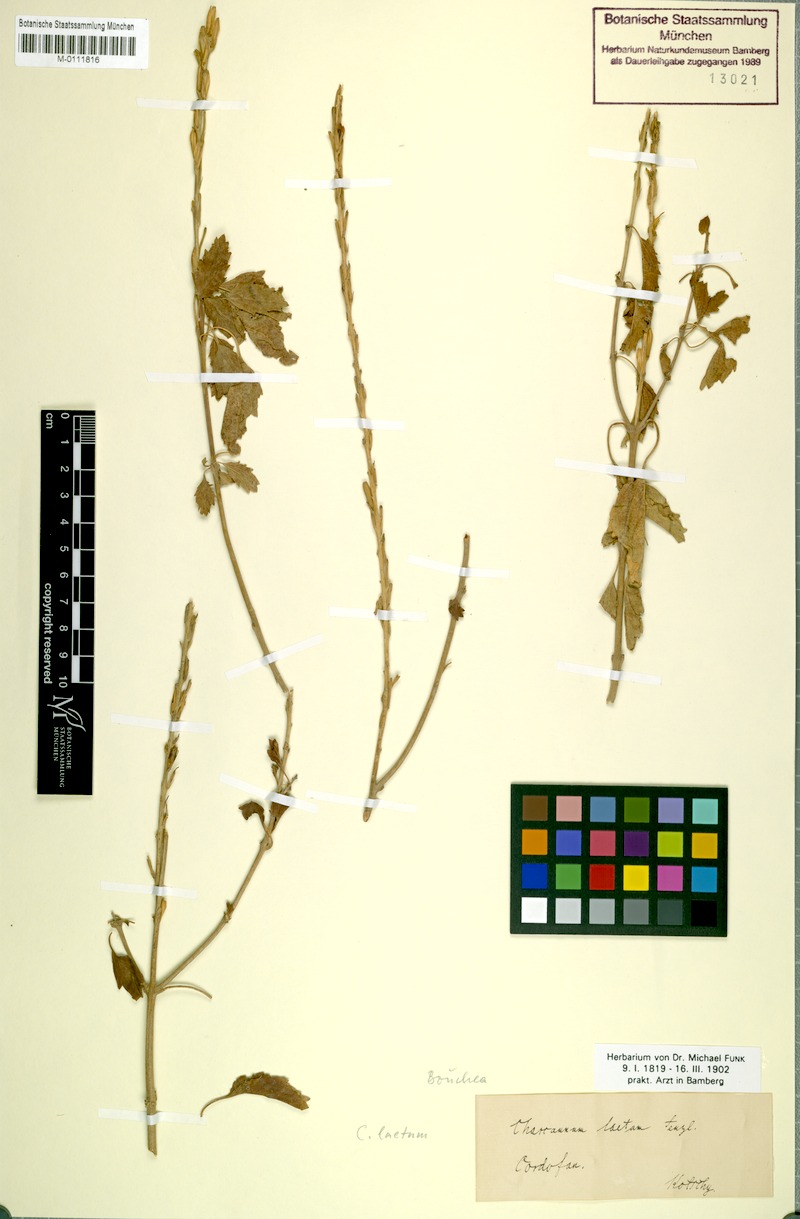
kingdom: Plantae
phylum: Tracheophyta
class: Magnoliopsida
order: Lamiales
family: Verbenaceae
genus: Chascanum
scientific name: Chascanum laetum
